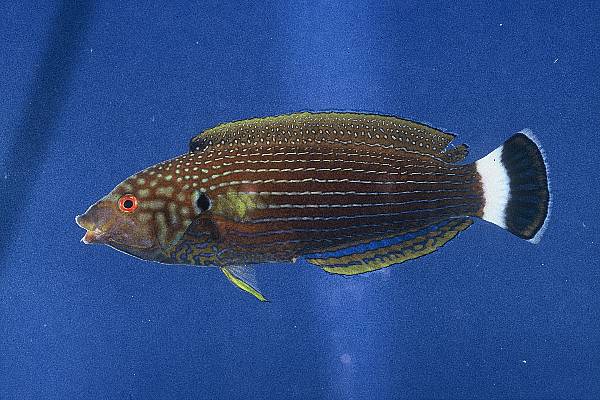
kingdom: Animalia
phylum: Chordata
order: Perciformes
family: Labridae
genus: Anampses
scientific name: Anampses lineatus
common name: Lined wrasse
